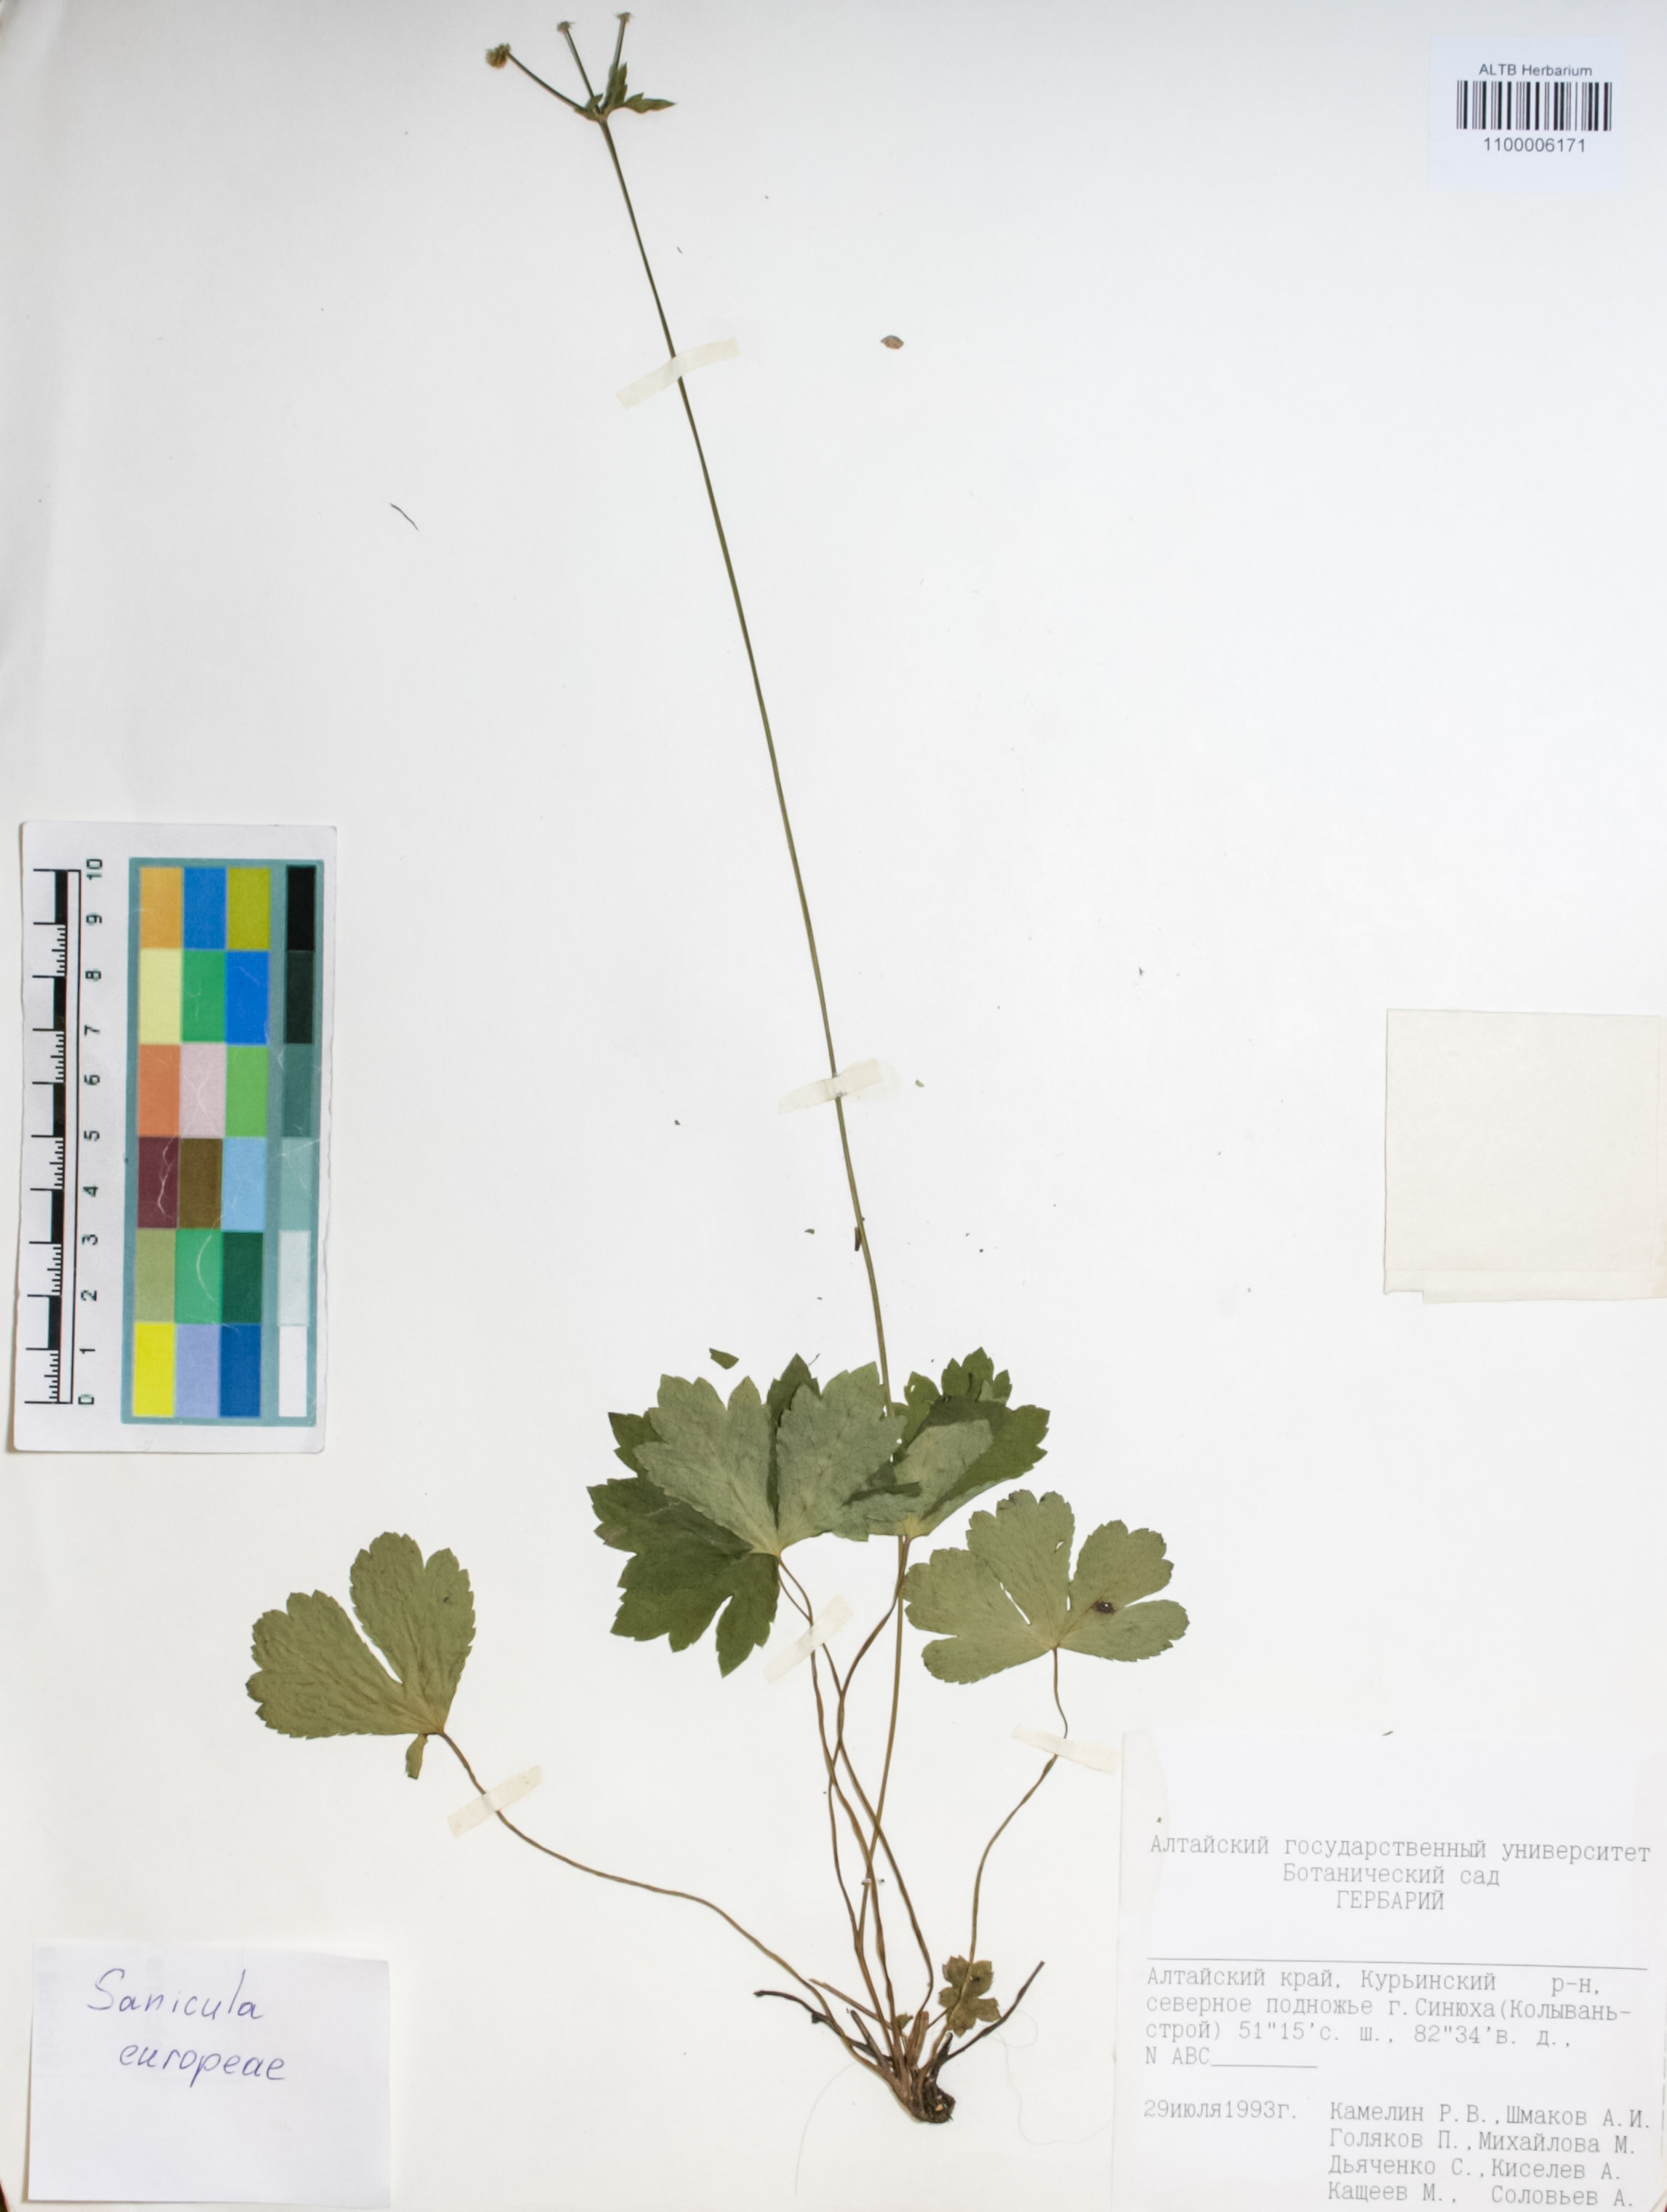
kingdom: Plantae
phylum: Tracheophyta
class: Magnoliopsida
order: Apiales
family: Apiaceae
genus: Sanicula
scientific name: Sanicula europaea
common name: Sanicle
